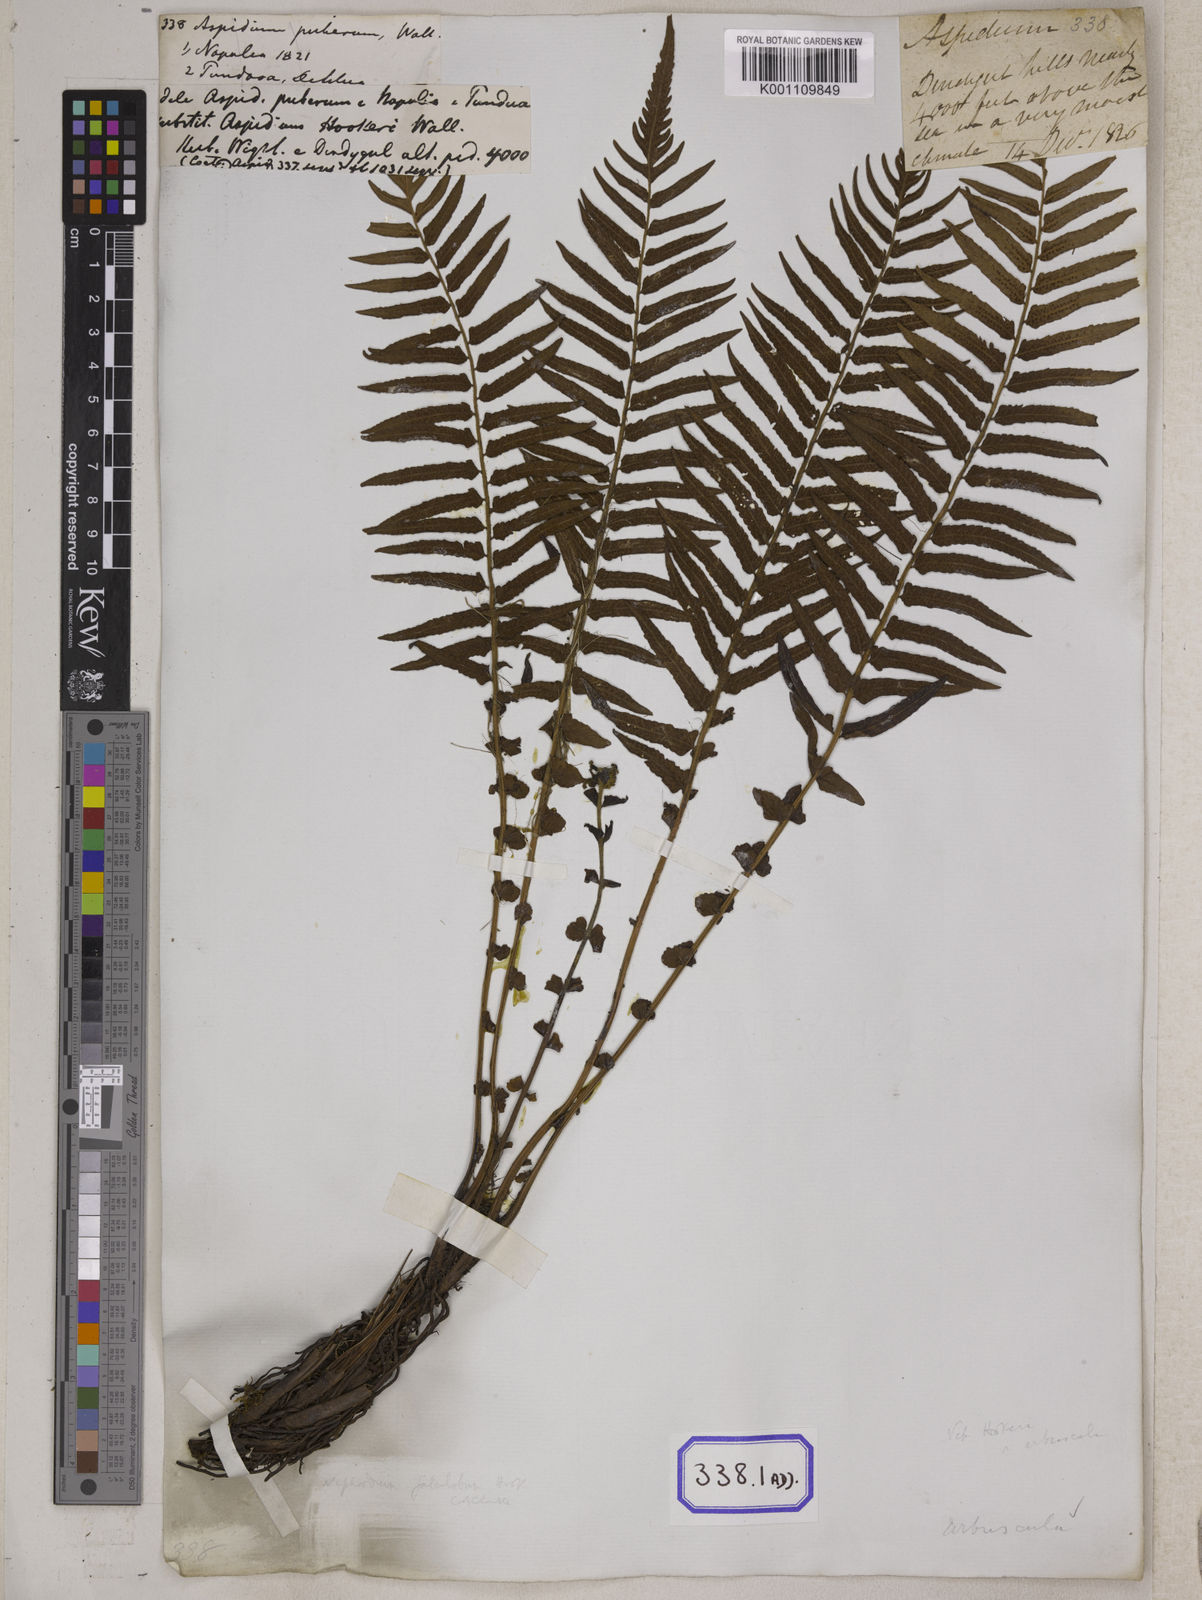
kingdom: Plantae
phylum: Tracheophyta
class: Polypodiopsida
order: Polypodiales
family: Dennstaedtiaceae
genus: Microlepia
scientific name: Microlepia speluncae
